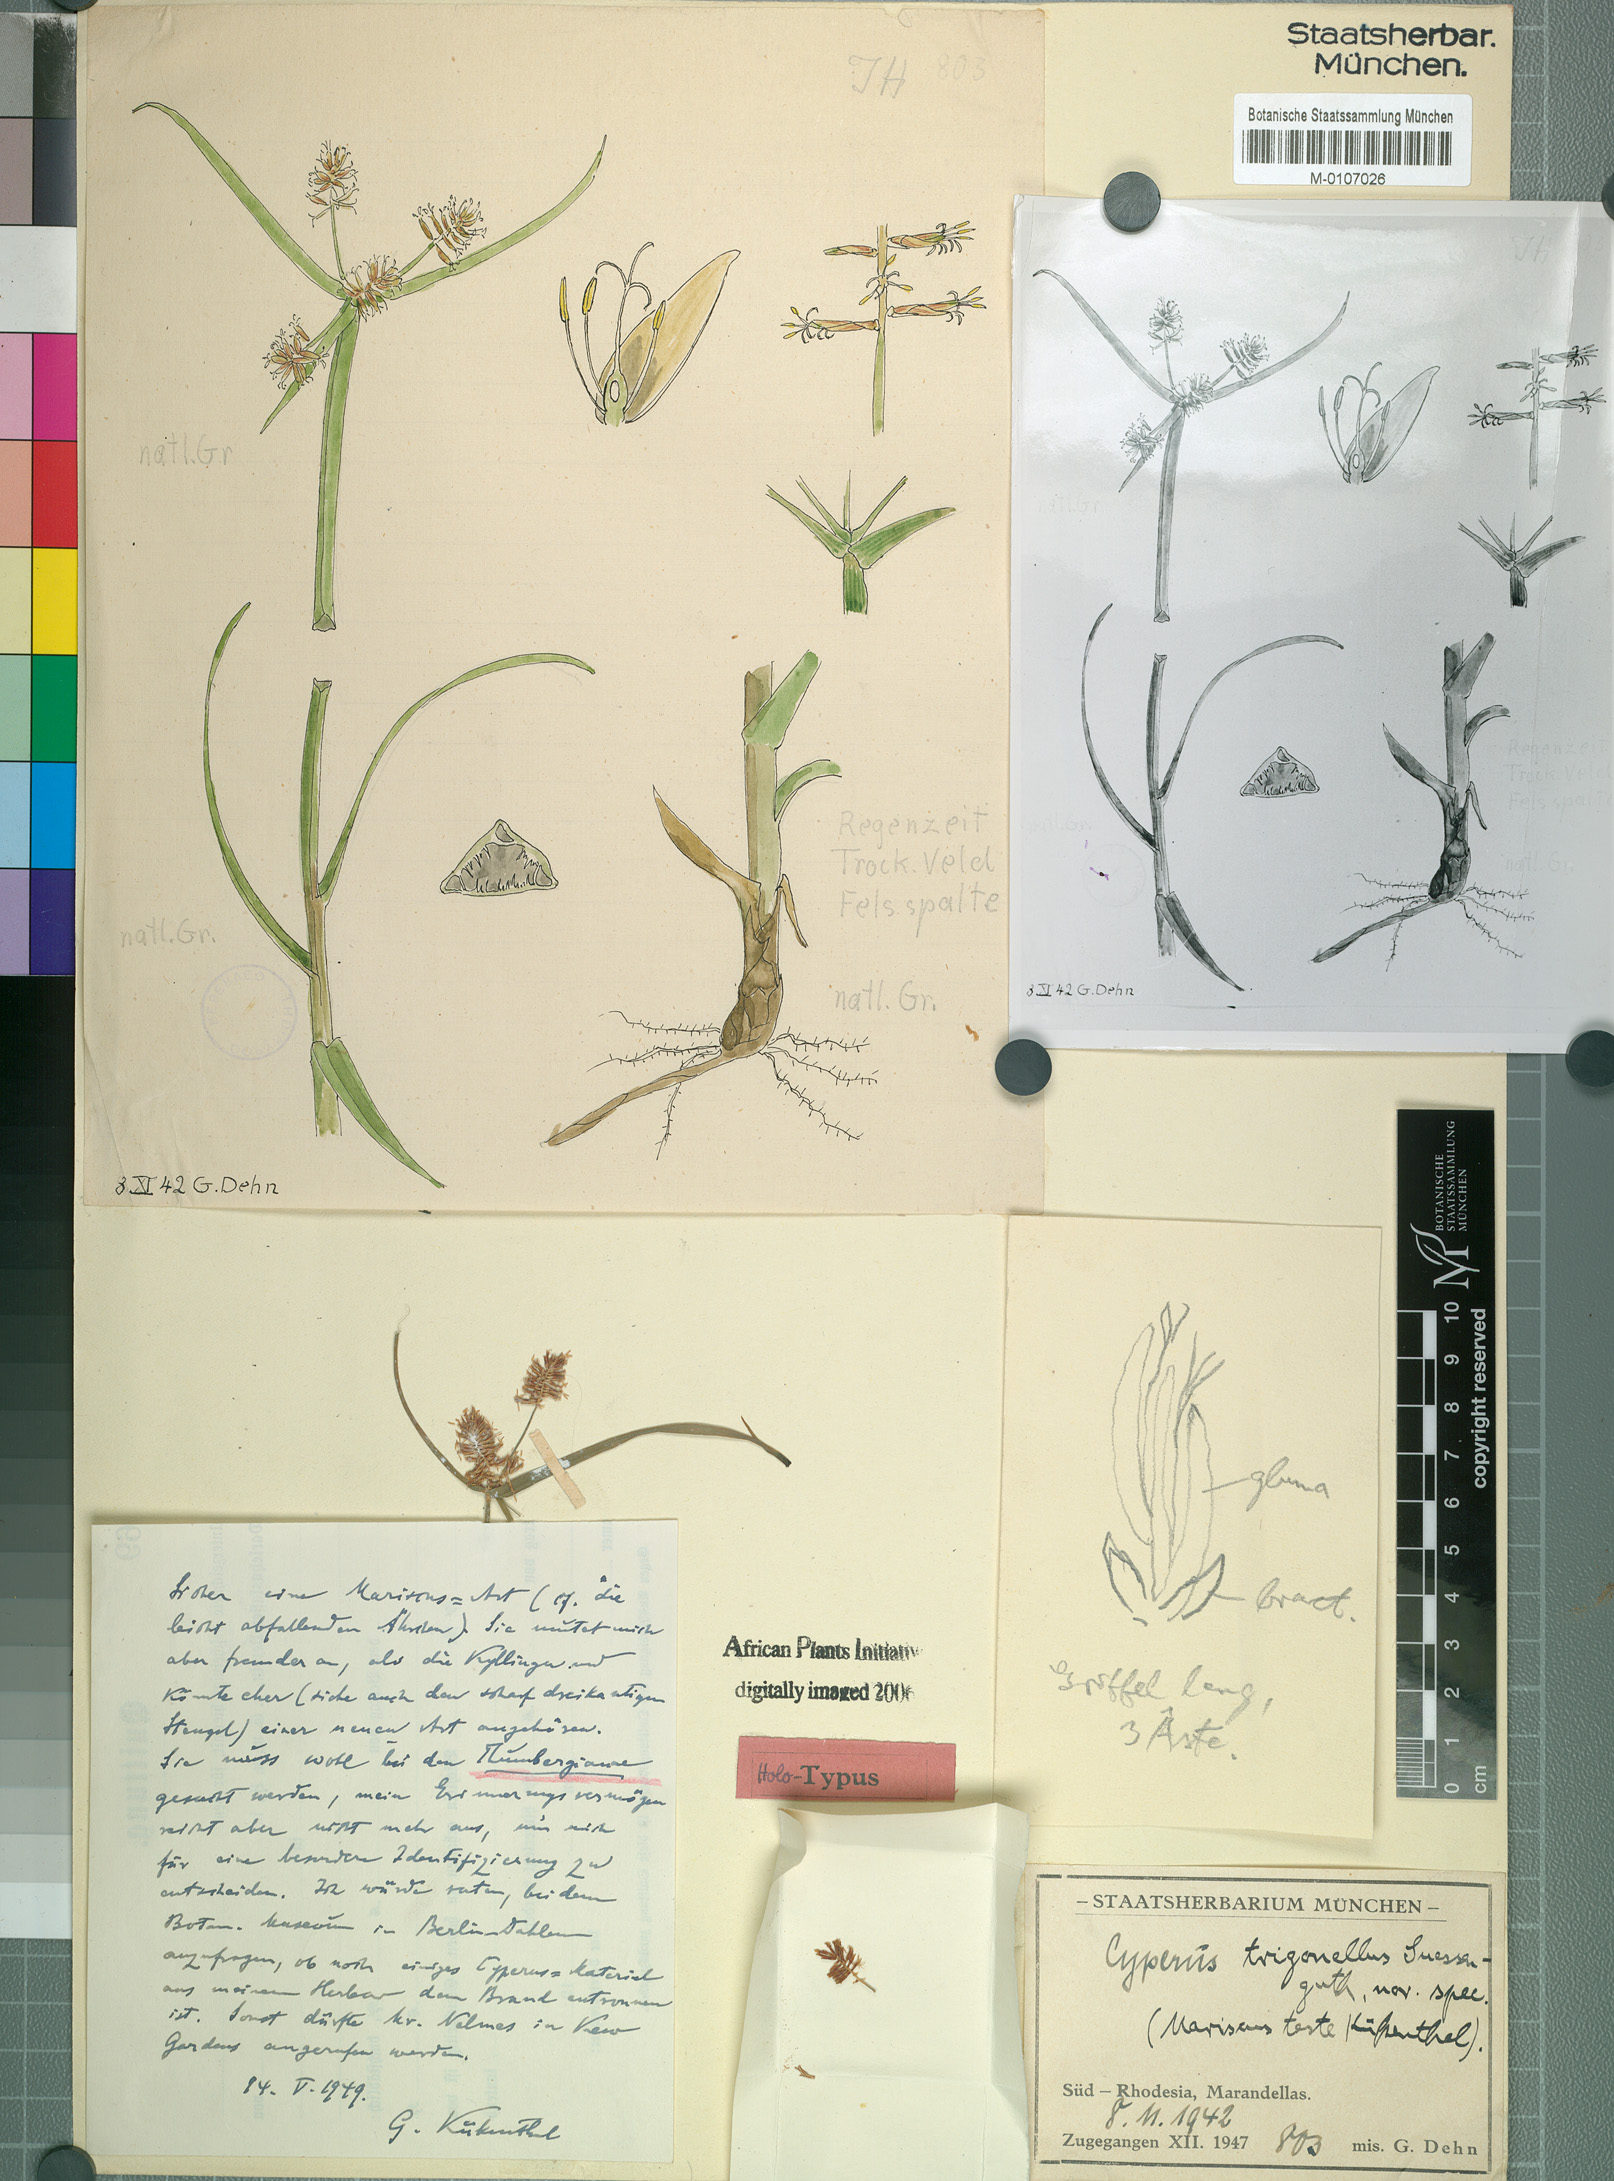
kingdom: Plantae
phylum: Tracheophyta
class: Liliopsida
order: Poales
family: Cyperaceae
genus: Cyperus
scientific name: Cyperus trigonellus
